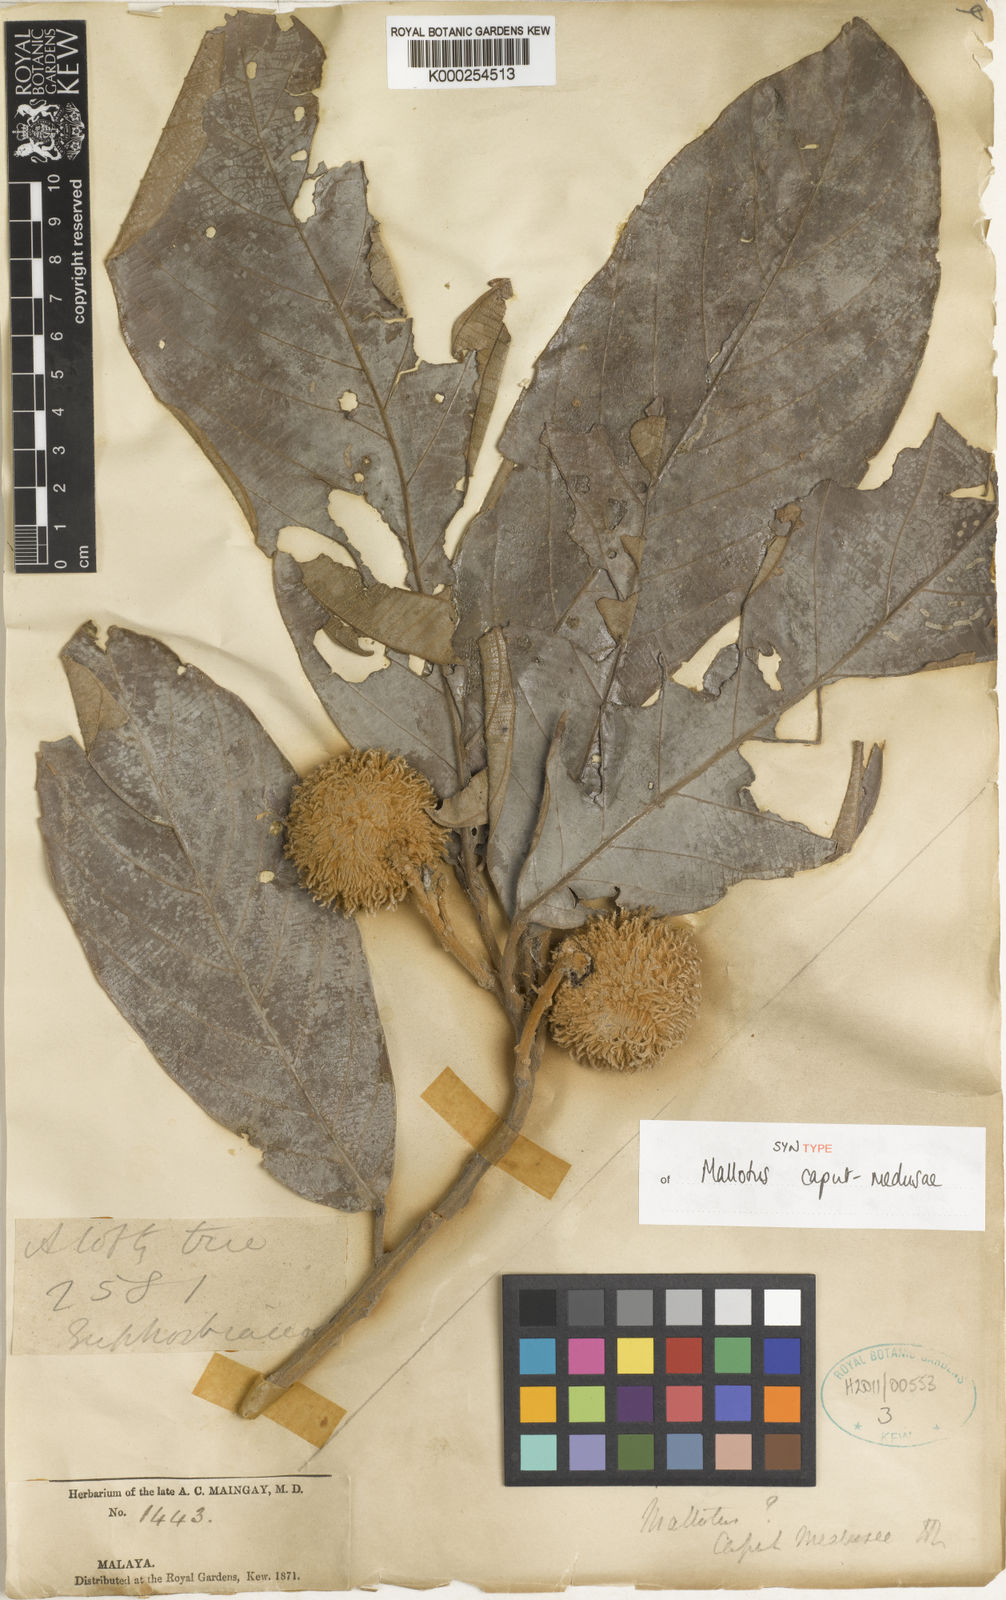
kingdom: Plantae
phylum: Tracheophyta
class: Magnoliopsida
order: Malpighiales
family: Euphorbiaceae
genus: Ptychopyxis
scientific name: Ptychopyxis caput-medusae
